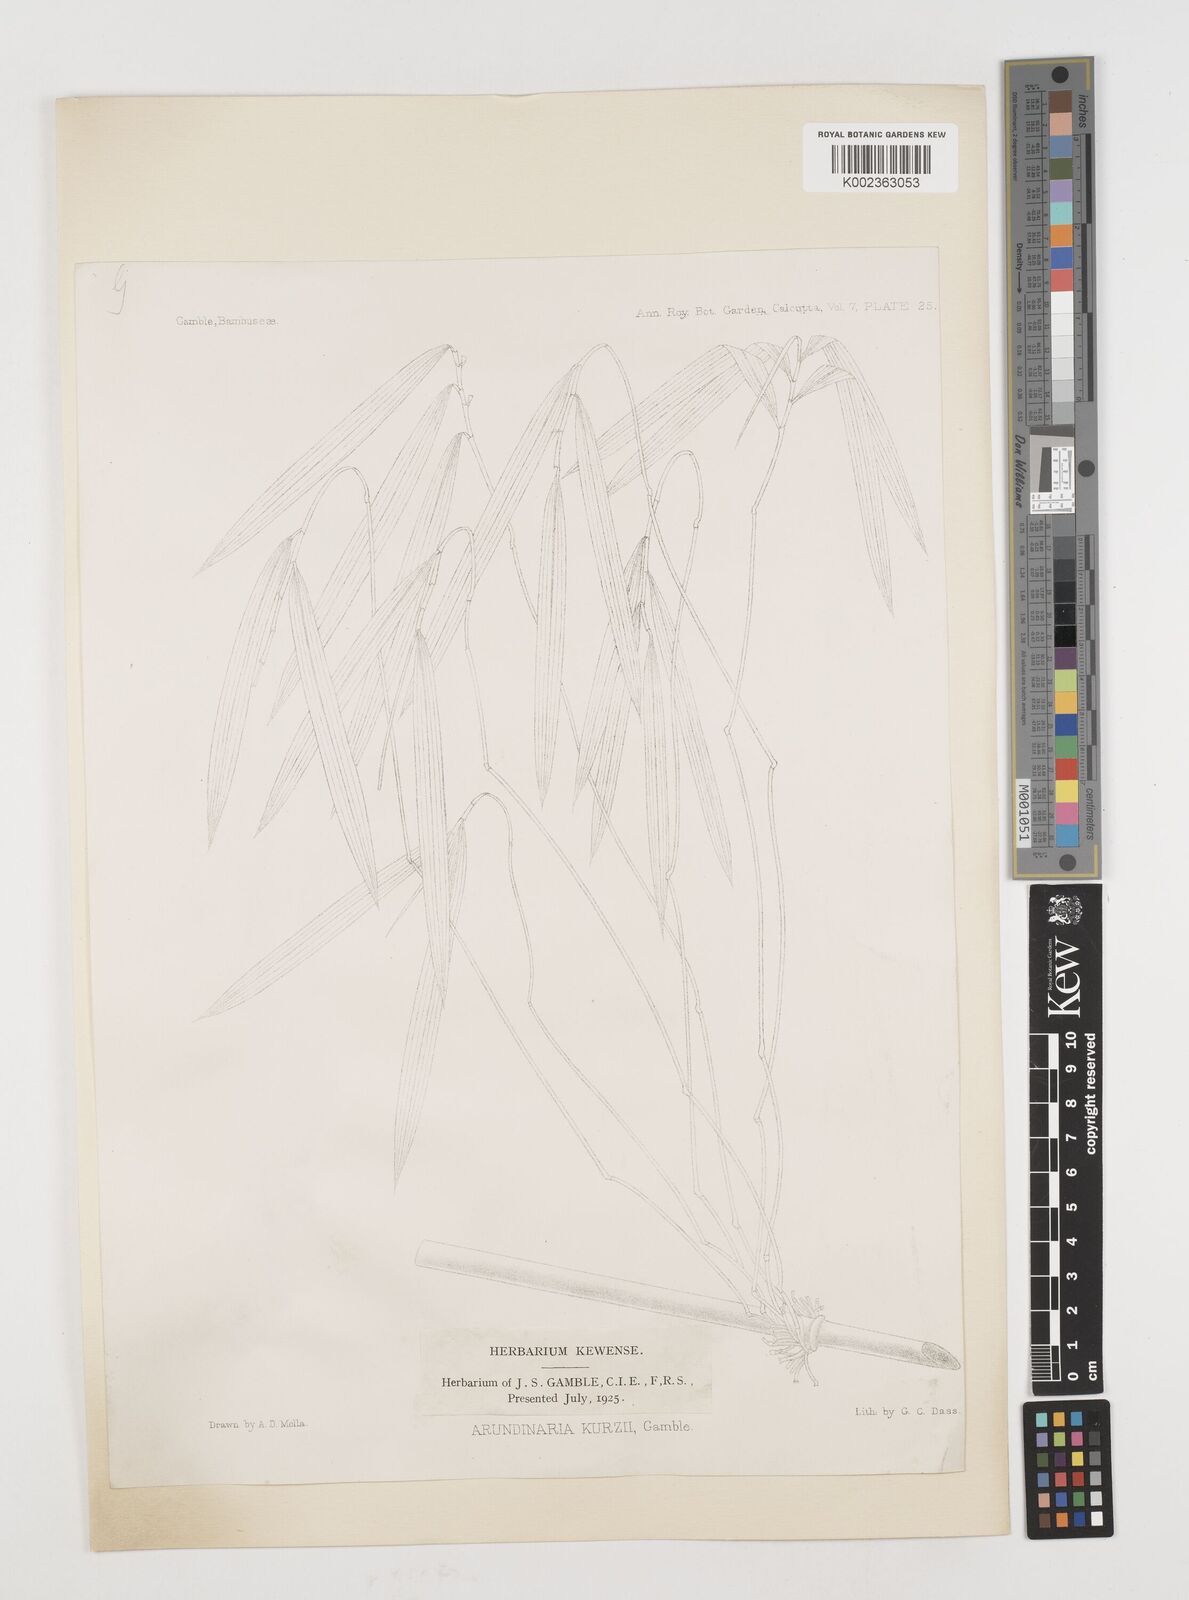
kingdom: Plantae
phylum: Tracheophyta
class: Liliopsida
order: Poales
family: Poaceae
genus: Drepanostachyum
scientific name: Drepanostachyum kurzii
